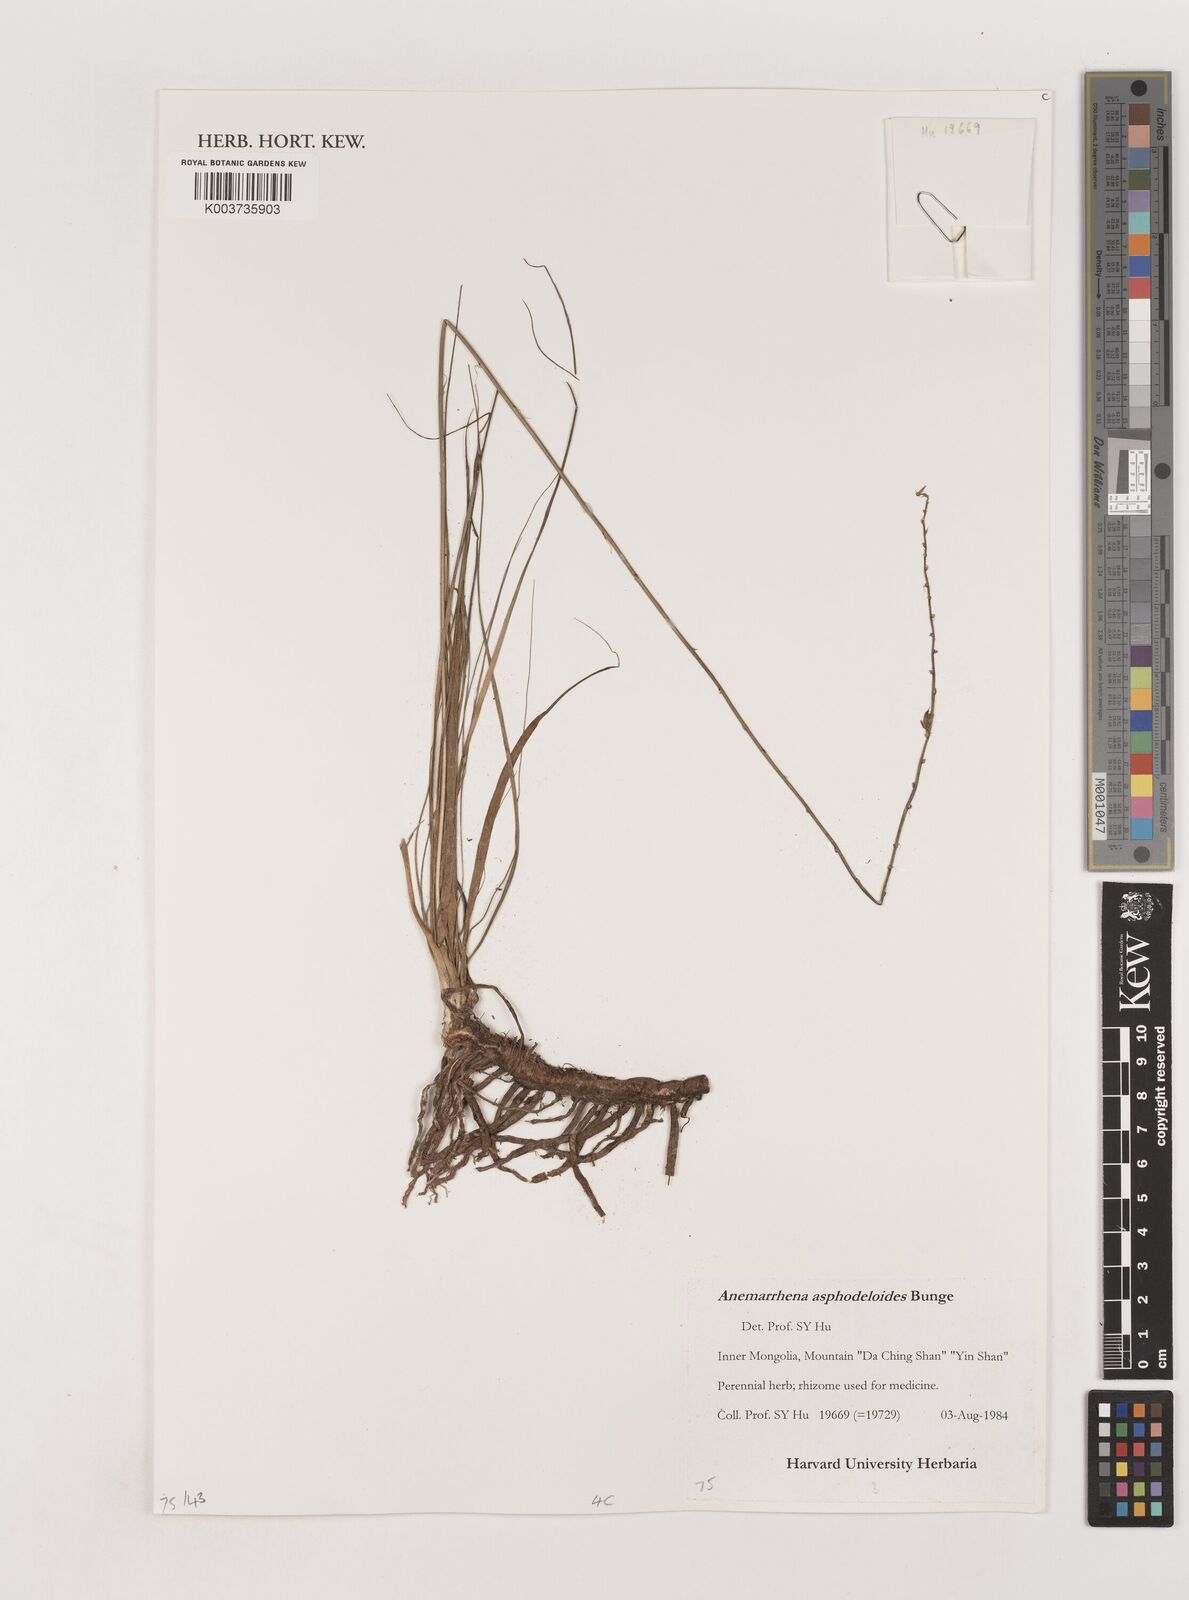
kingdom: Plantae
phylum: Tracheophyta
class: Liliopsida
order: Asparagales
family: Asparagaceae
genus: Anemarrhena
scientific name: Anemarrhena asphodeloides
